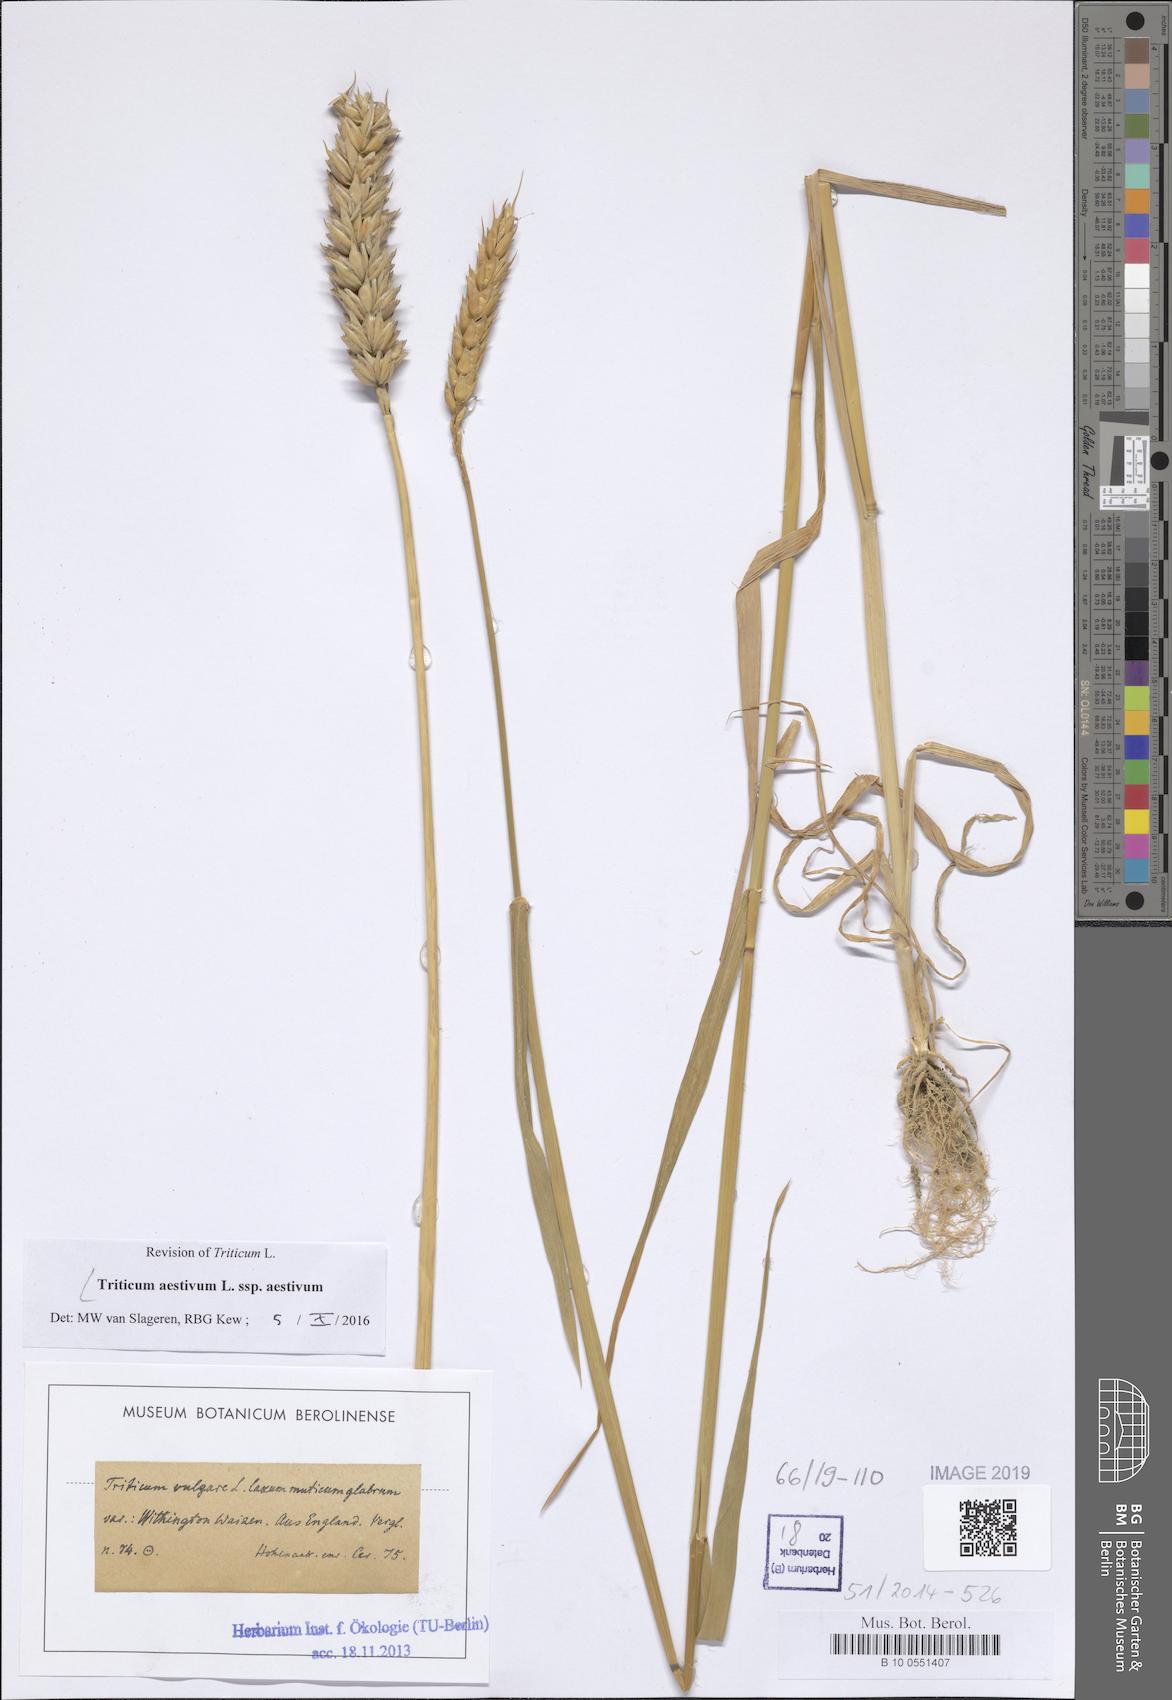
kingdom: Plantae
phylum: Tracheophyta
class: Liliopsida
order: Poales
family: Poaceae
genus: Triticum
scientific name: Triticum aestivum
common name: Common wheat
